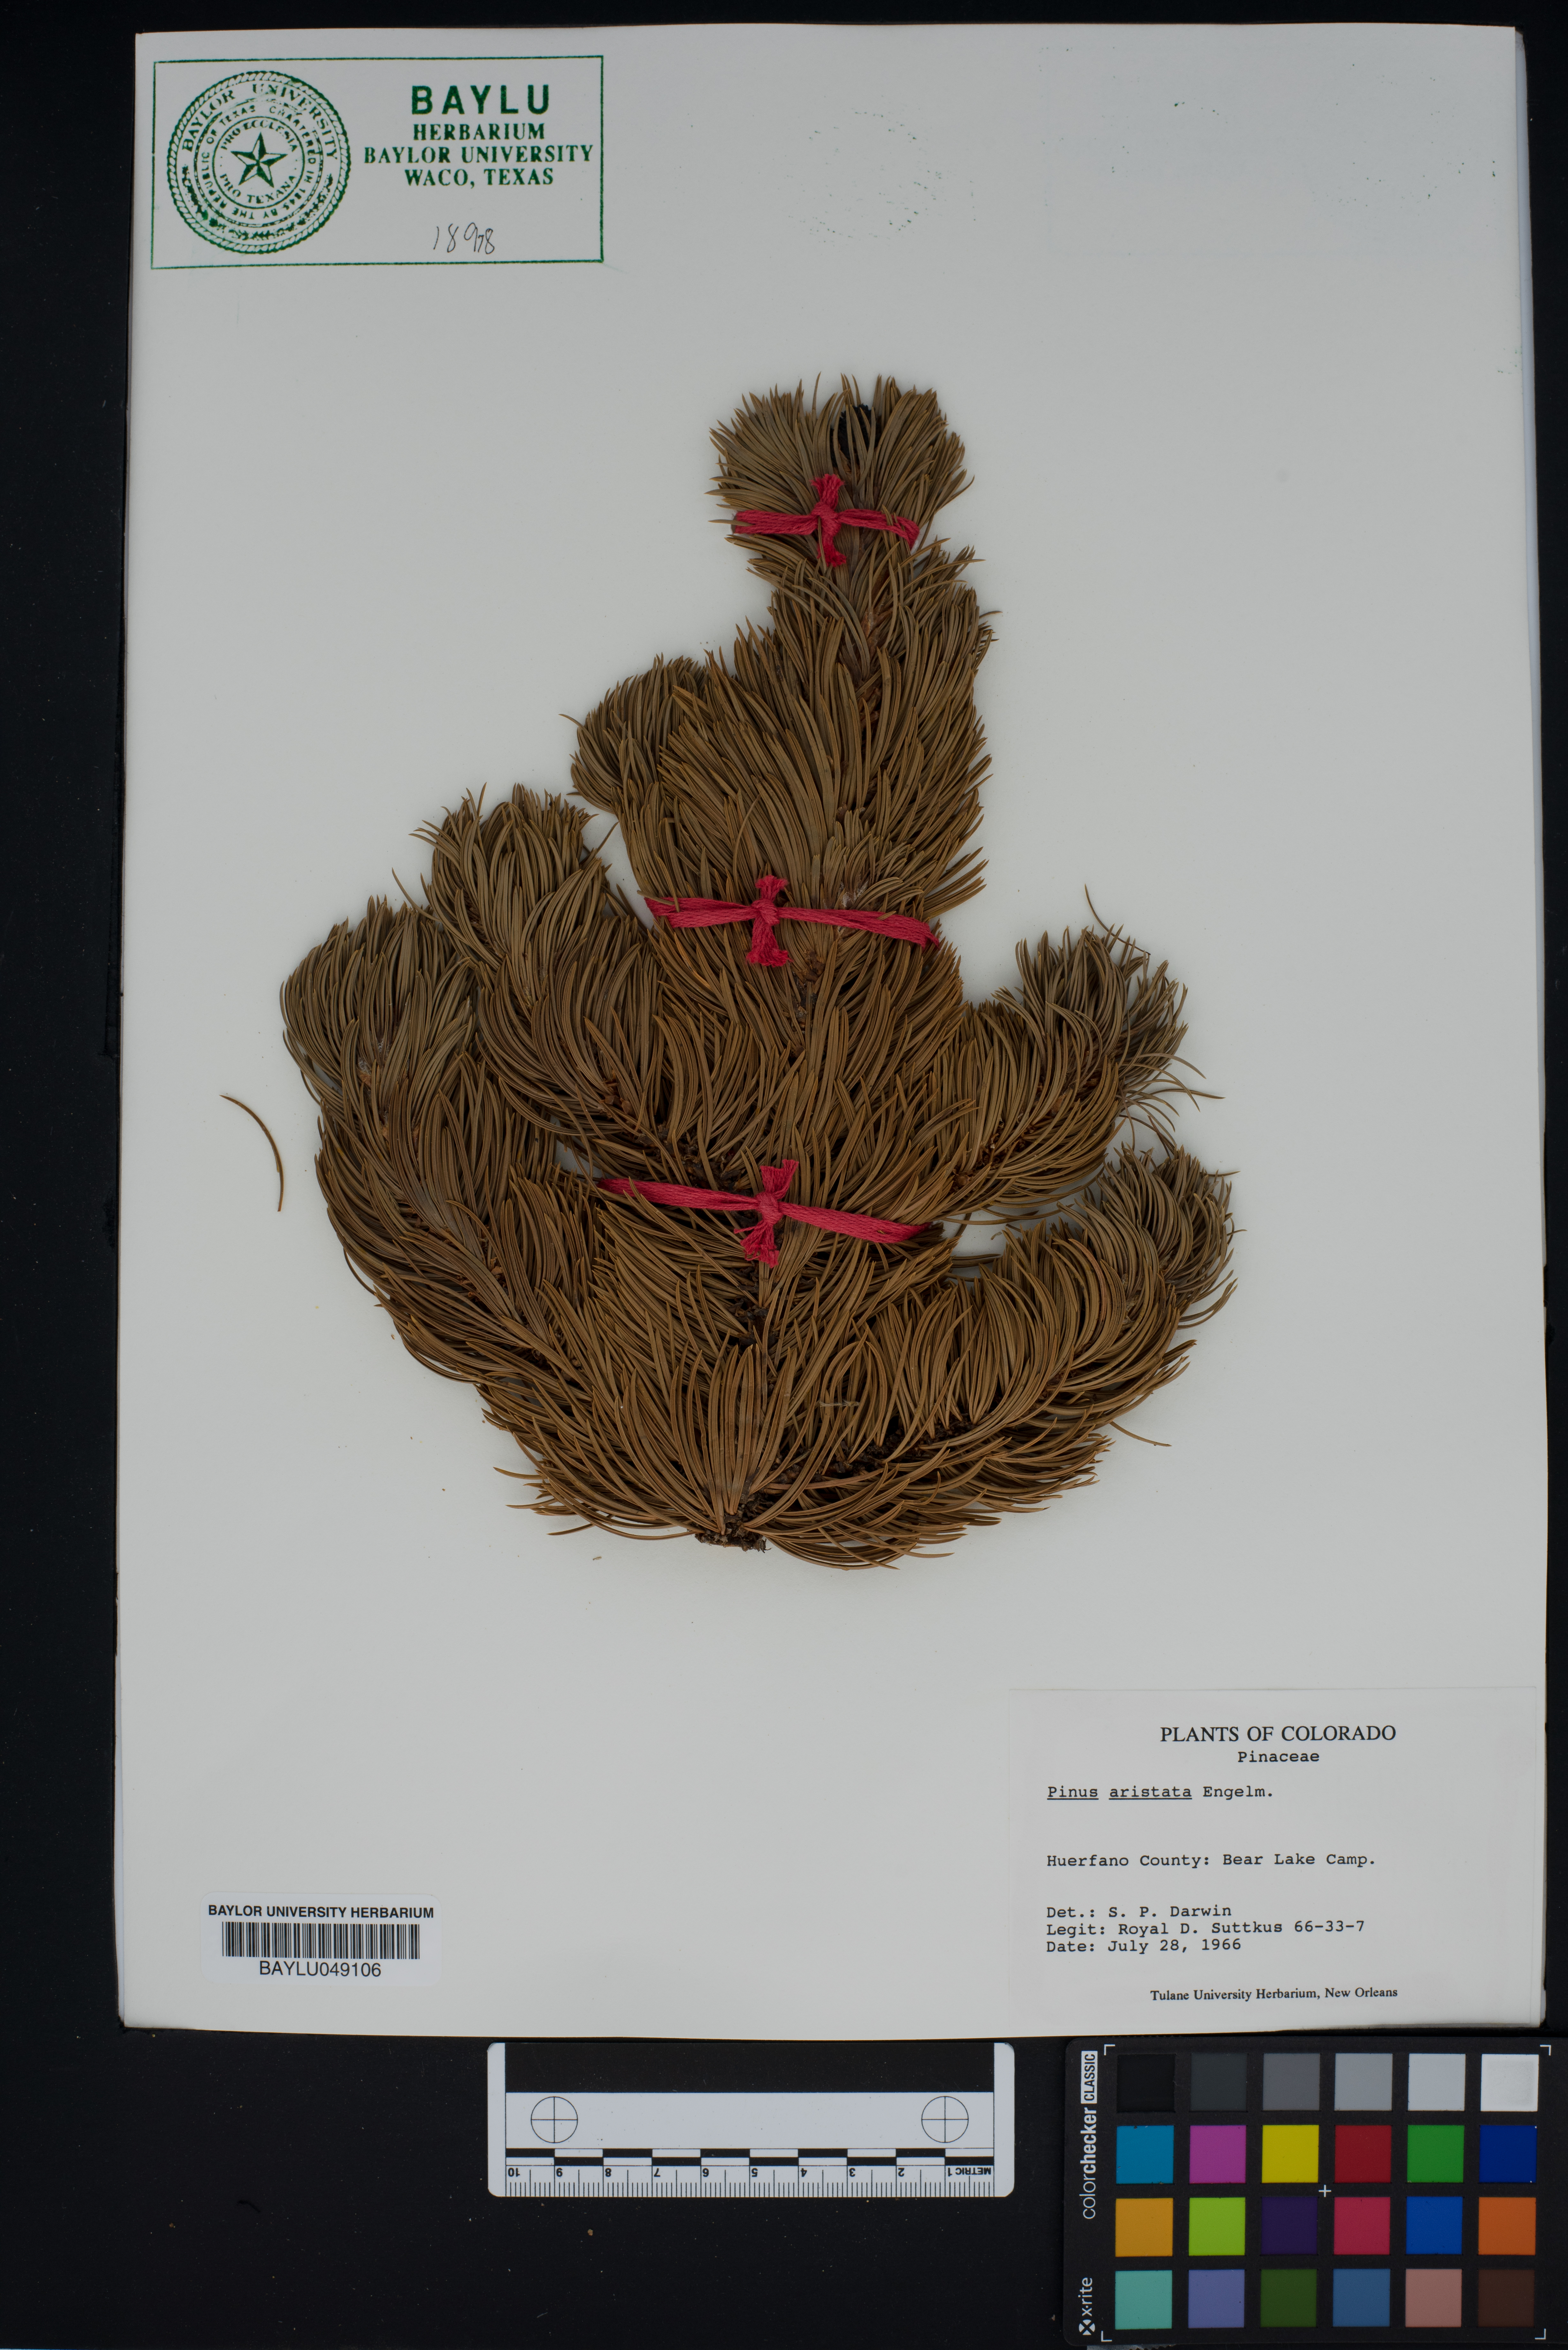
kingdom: Plantae
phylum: Tracheophyta
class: Pinopsida
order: Pinales
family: Pinaceae
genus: Pinus
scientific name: Pinus aristata
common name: Colorado bristlecone pine
